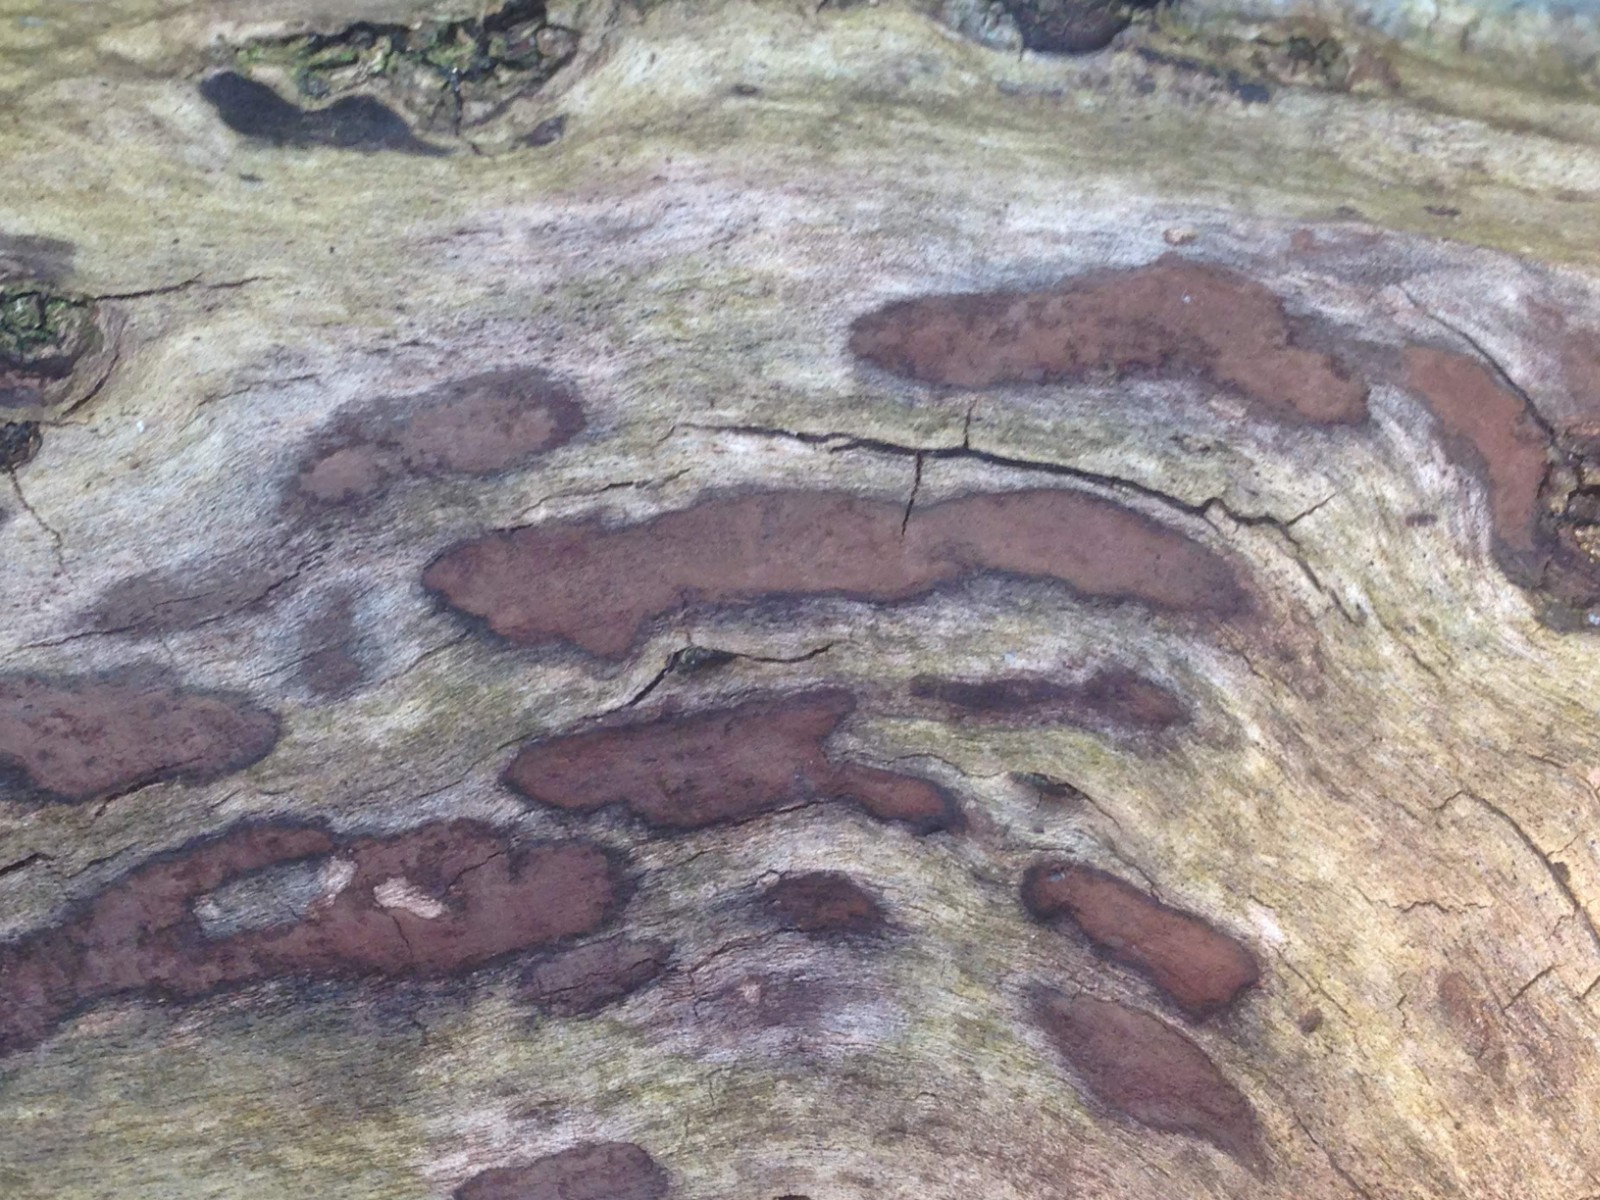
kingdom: Fungi
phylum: Ascomycota
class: Sordariomycetes
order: Xylariales
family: Hypoxylaceae
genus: Hypoxylon
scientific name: Hypoxylon petriniae
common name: nedsænket kulbær
